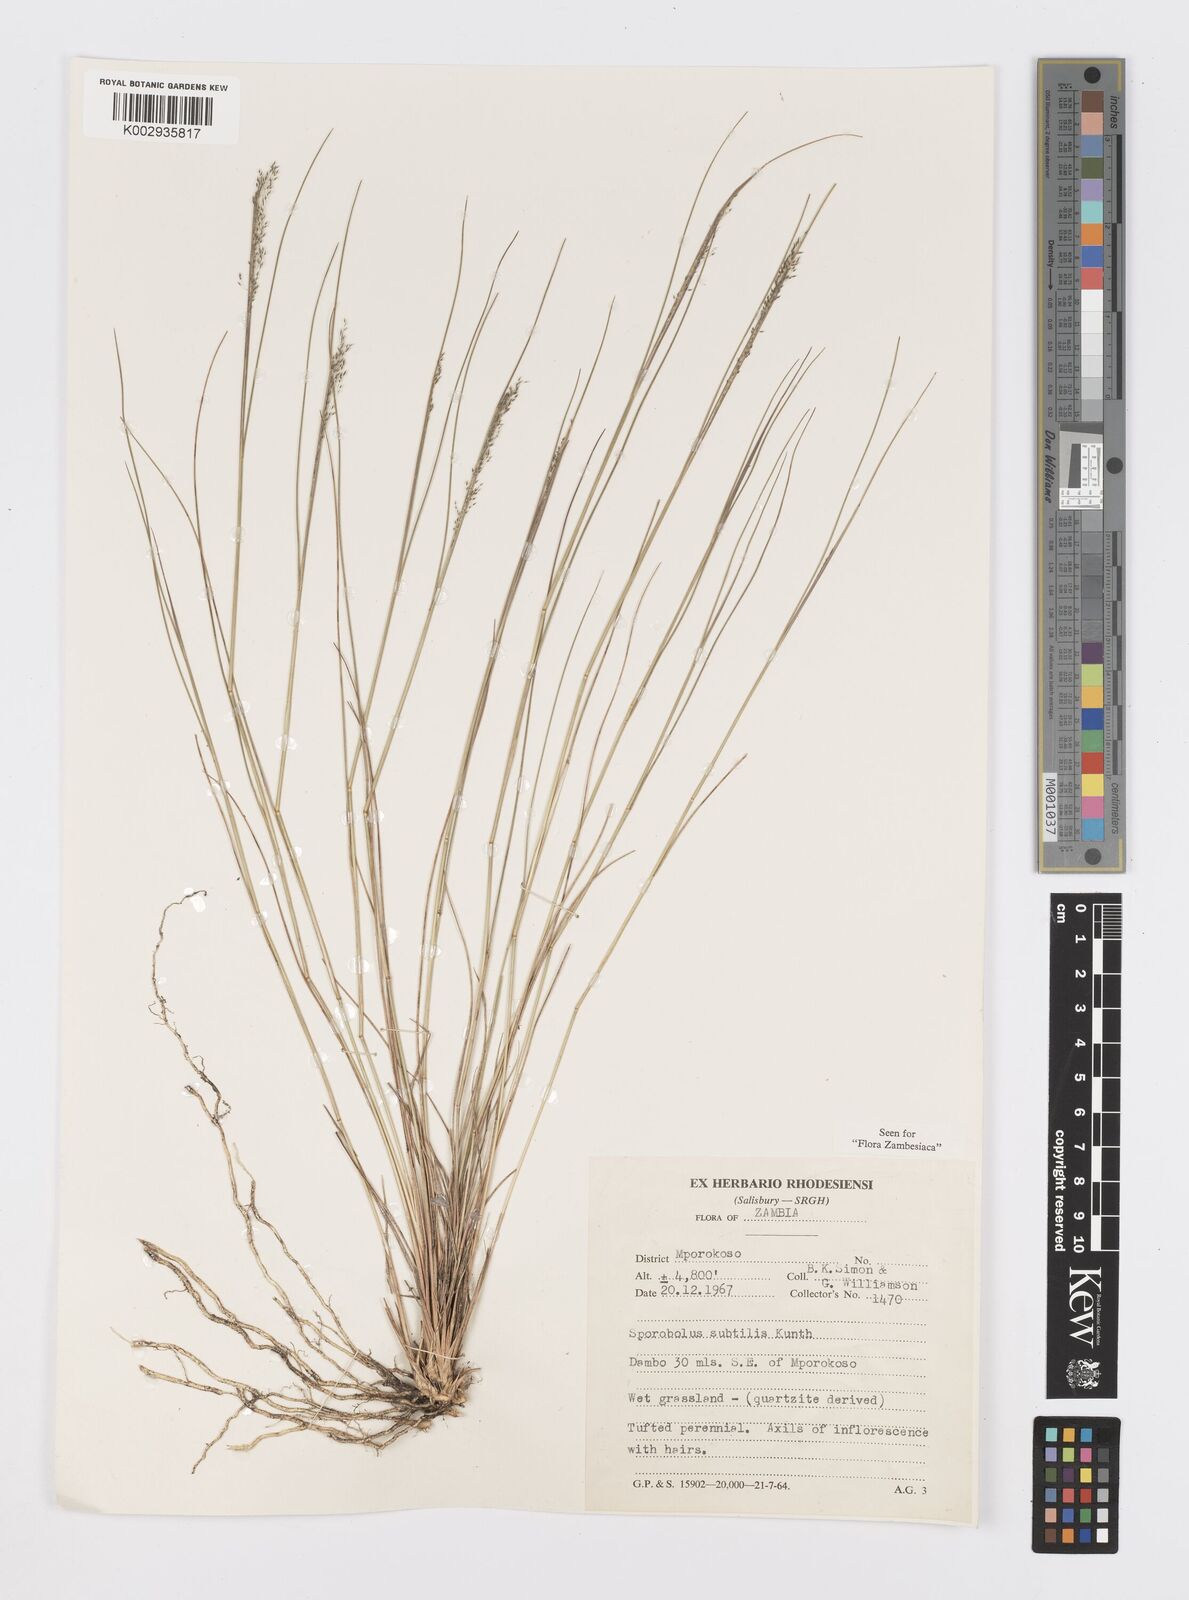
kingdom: Plantae
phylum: Tracheophyta
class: Liliopsida
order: Poales
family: Poaceae
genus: Sporobolus
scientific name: Sporobolus subtilis
